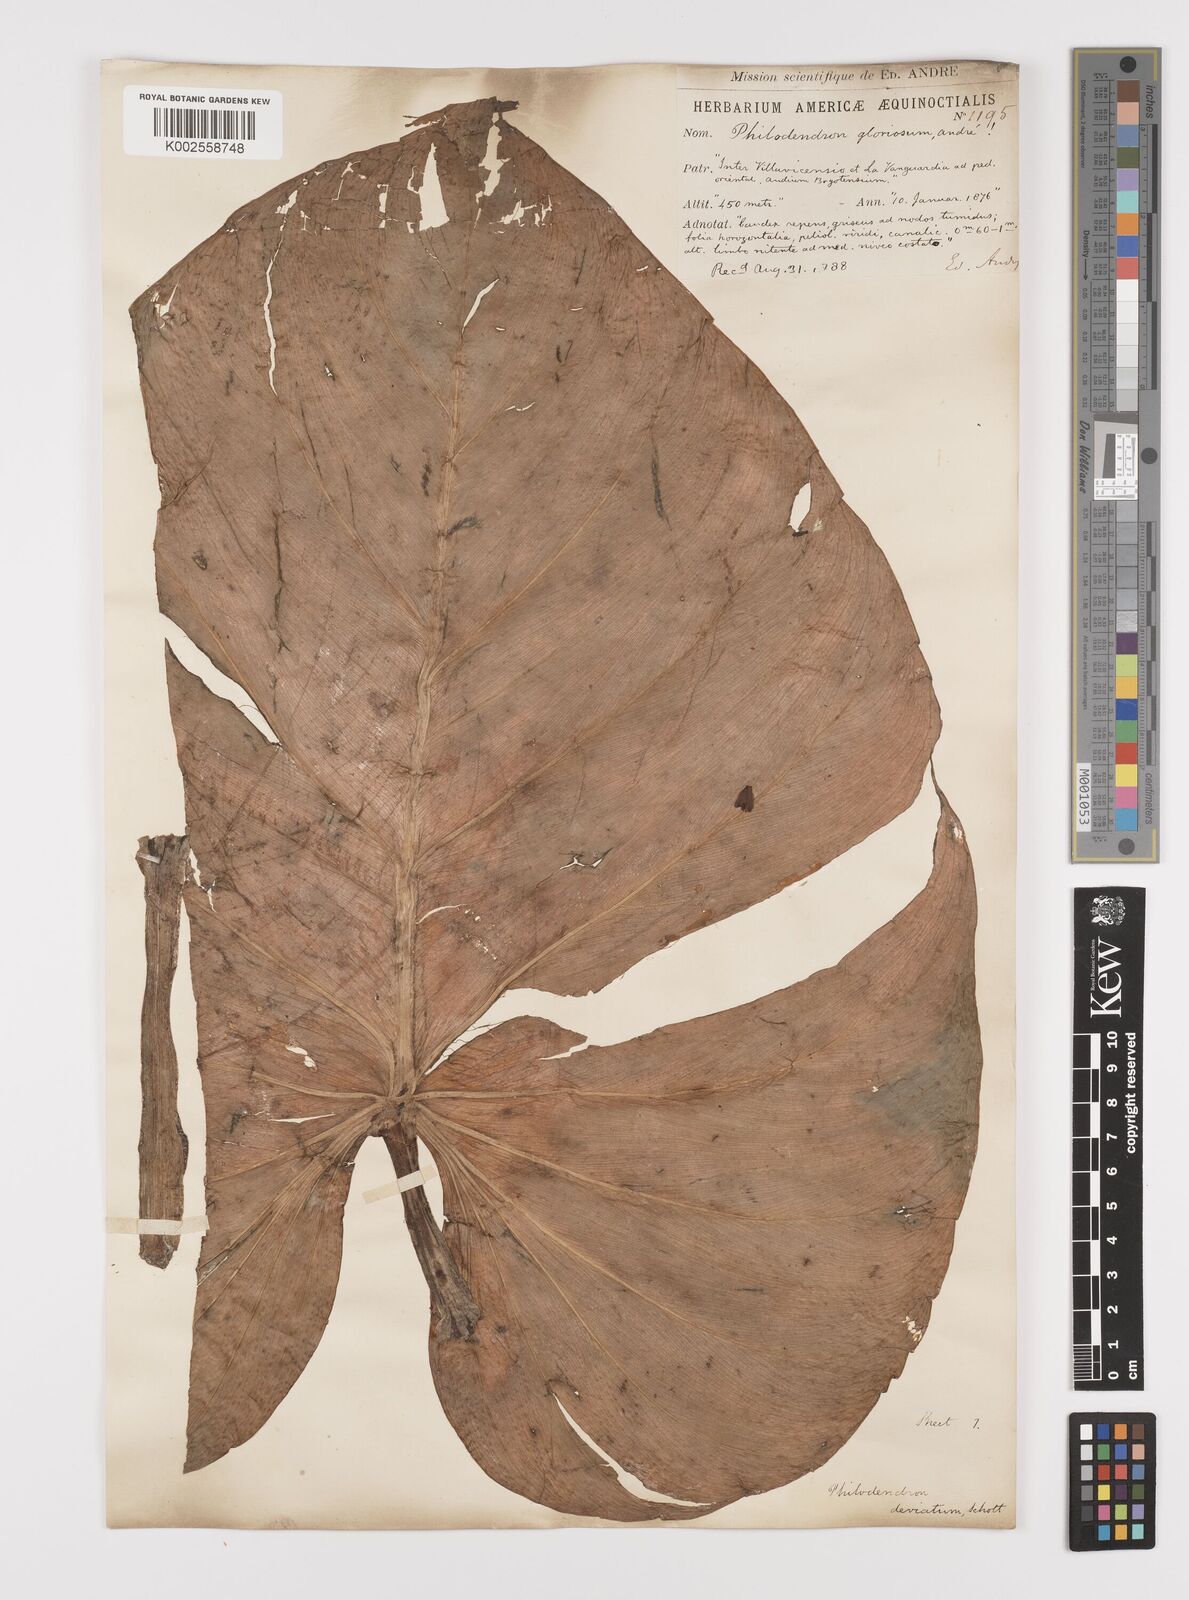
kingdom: Plantae
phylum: Tracheophyta
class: Liliopsida
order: Alismatales
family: Araceae
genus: Philodendron
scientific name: Philodendron jacquinii
